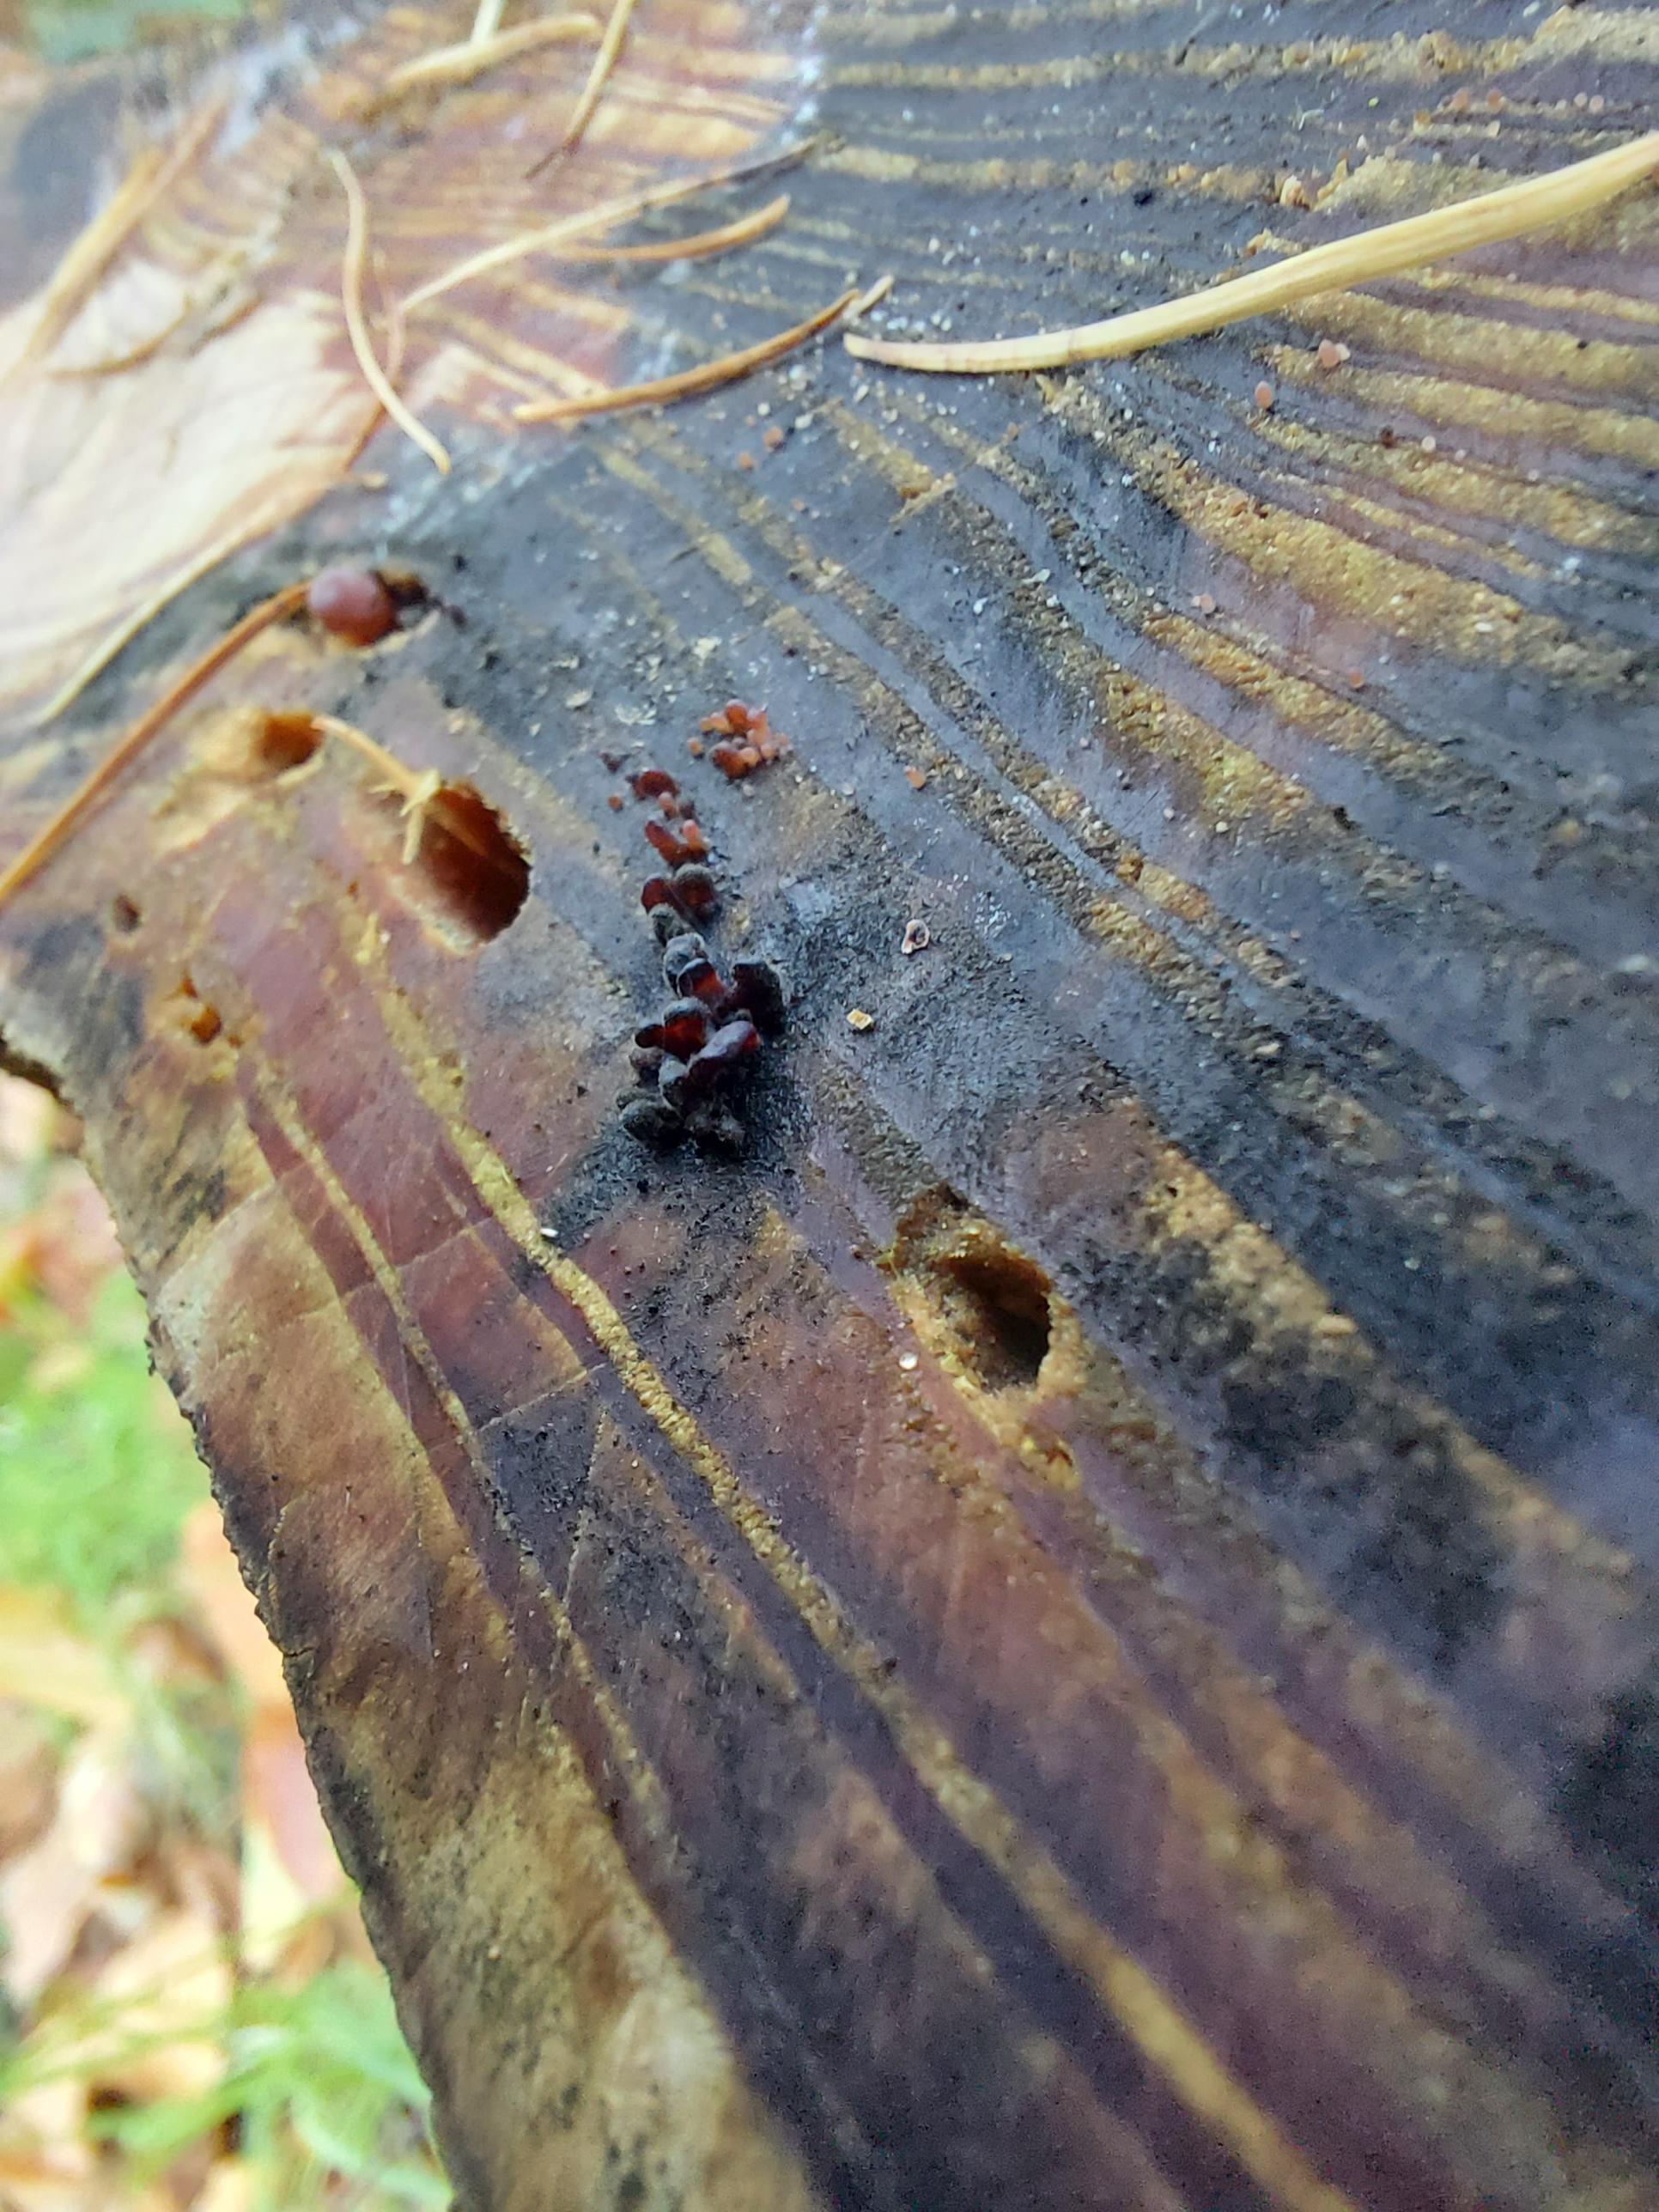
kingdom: Fungi
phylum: Ascomycota
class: Leotiomycetes
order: Helotiales
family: Gelatinodiscaceae
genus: Ascocoryne
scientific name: Ascocoryne sarcoides
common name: rødlilla sejskive
